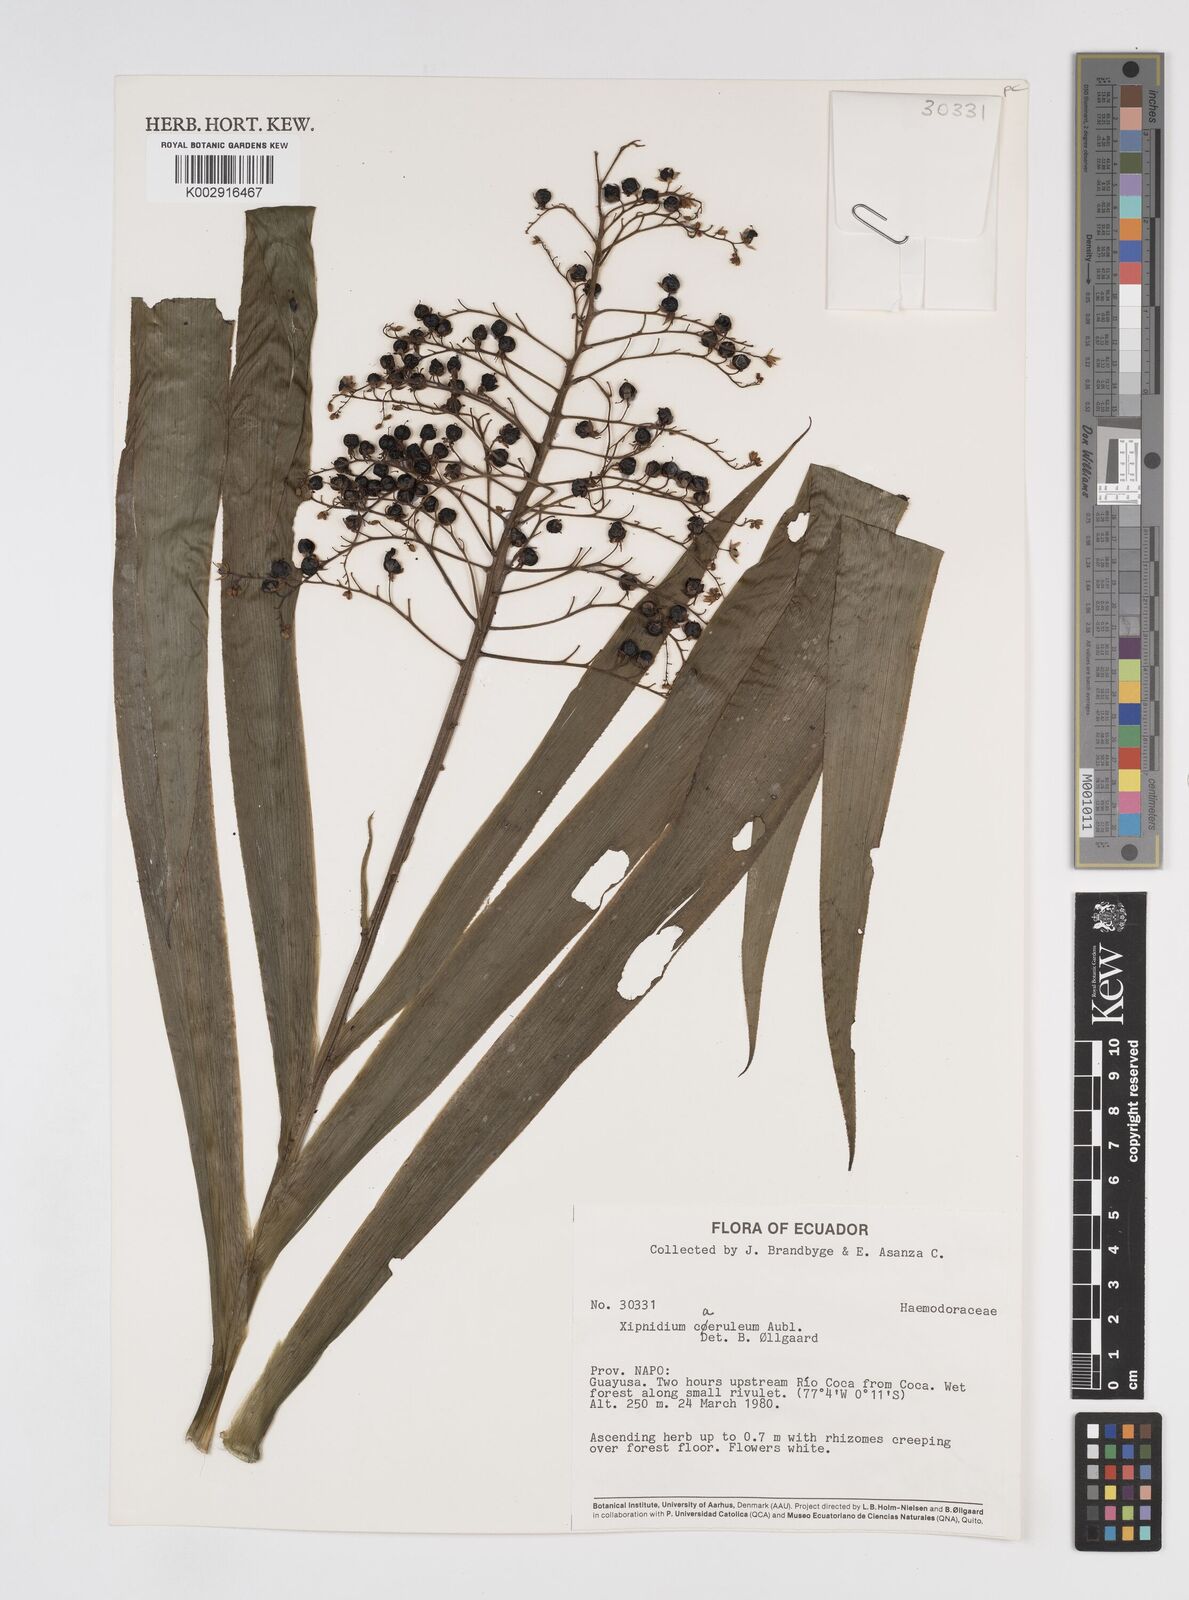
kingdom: Plantae
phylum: Tracheophyta
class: Liliopsida
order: Commelinales
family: Haemodoraceae
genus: Xiphidium
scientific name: Xiphidium caeruleum
